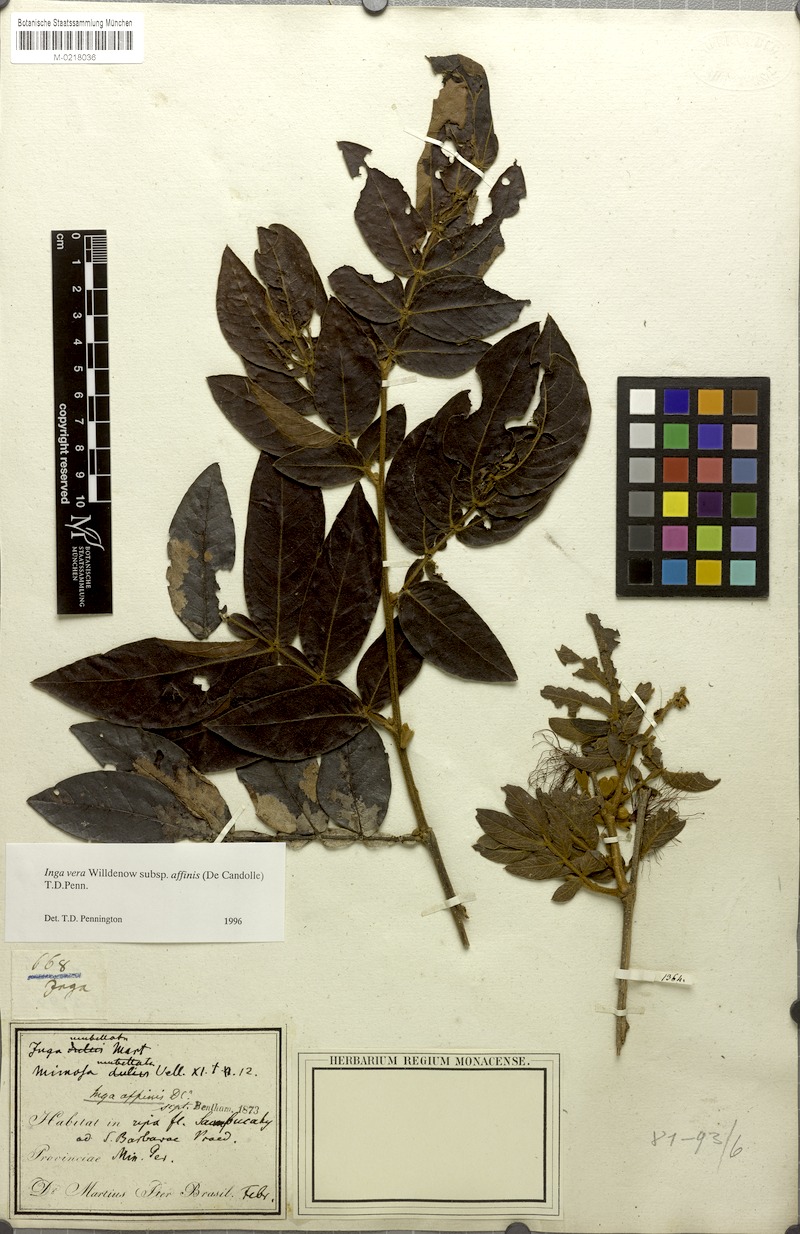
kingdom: Plantae
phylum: Tracheophyta
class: Magnoliopsida
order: Fabales
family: Fabaceae
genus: Inga
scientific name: Inga affinis
